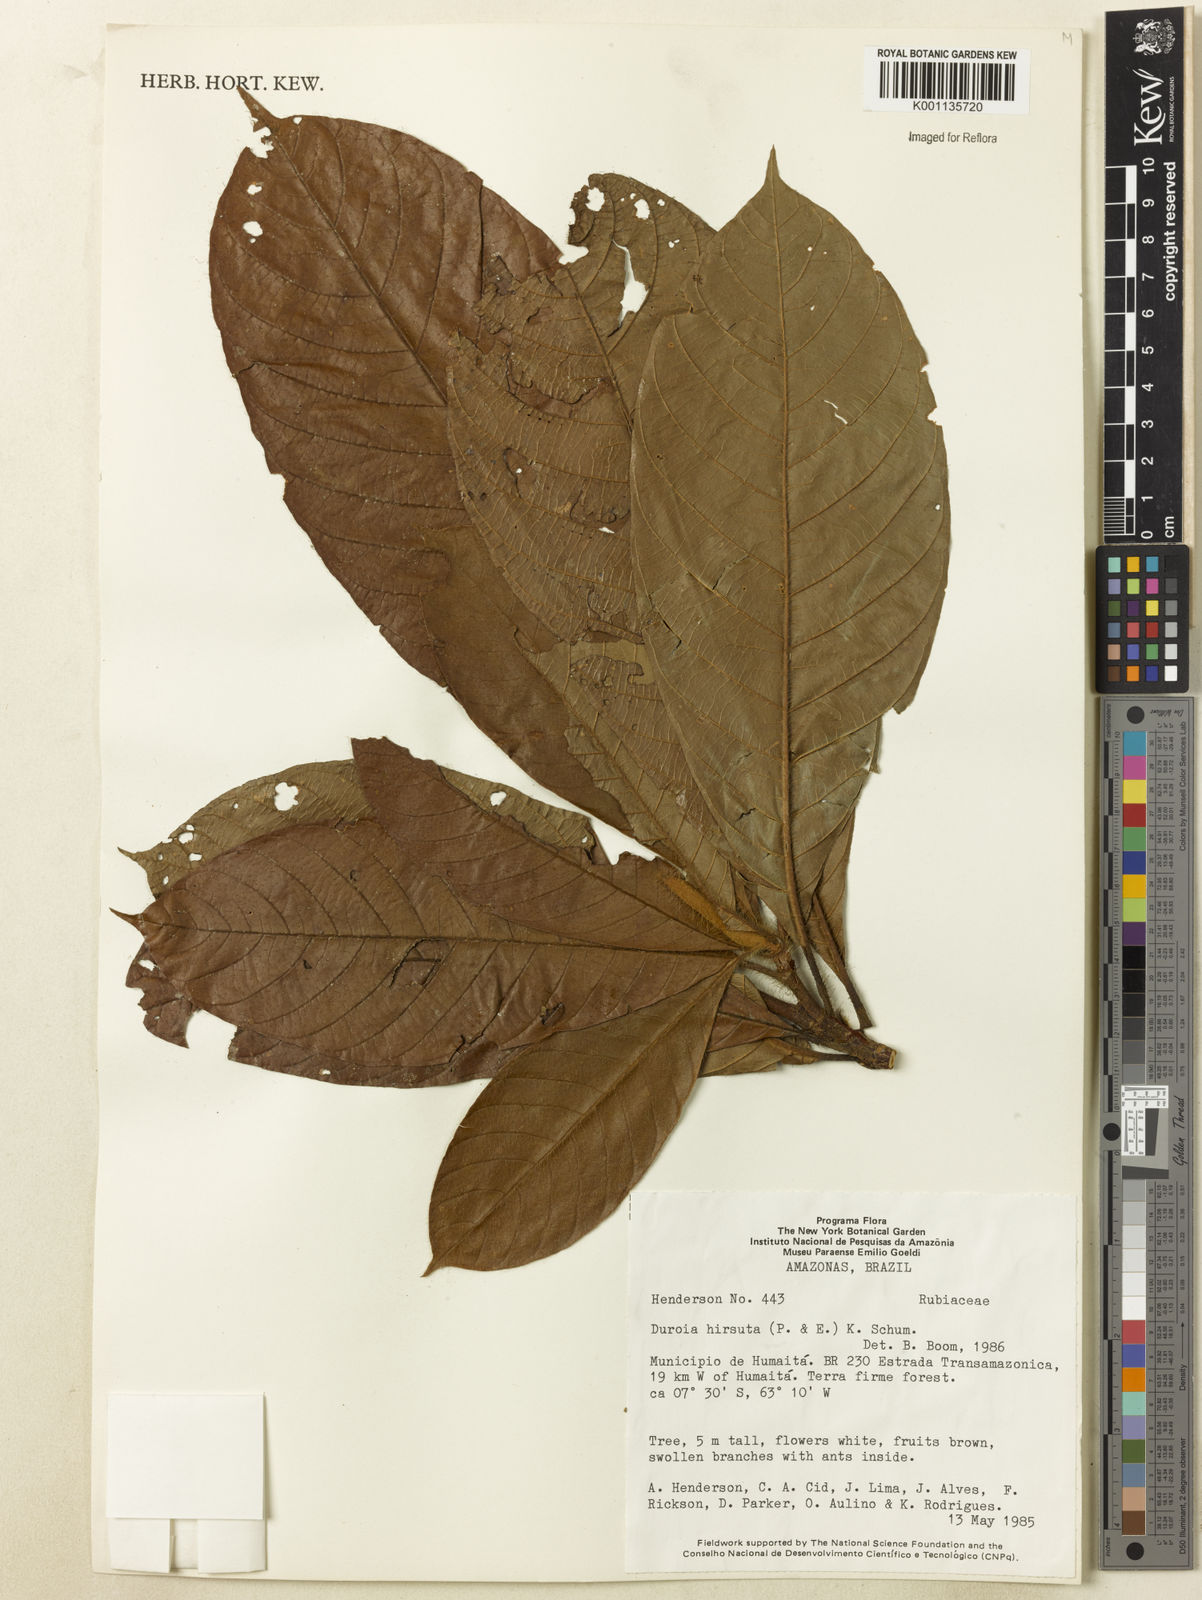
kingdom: Plantae
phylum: Tracheophyta
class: Magnoliopsida
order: Gentianales
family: Rubiaceae
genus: Duroia
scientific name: Duroia hirsuta
